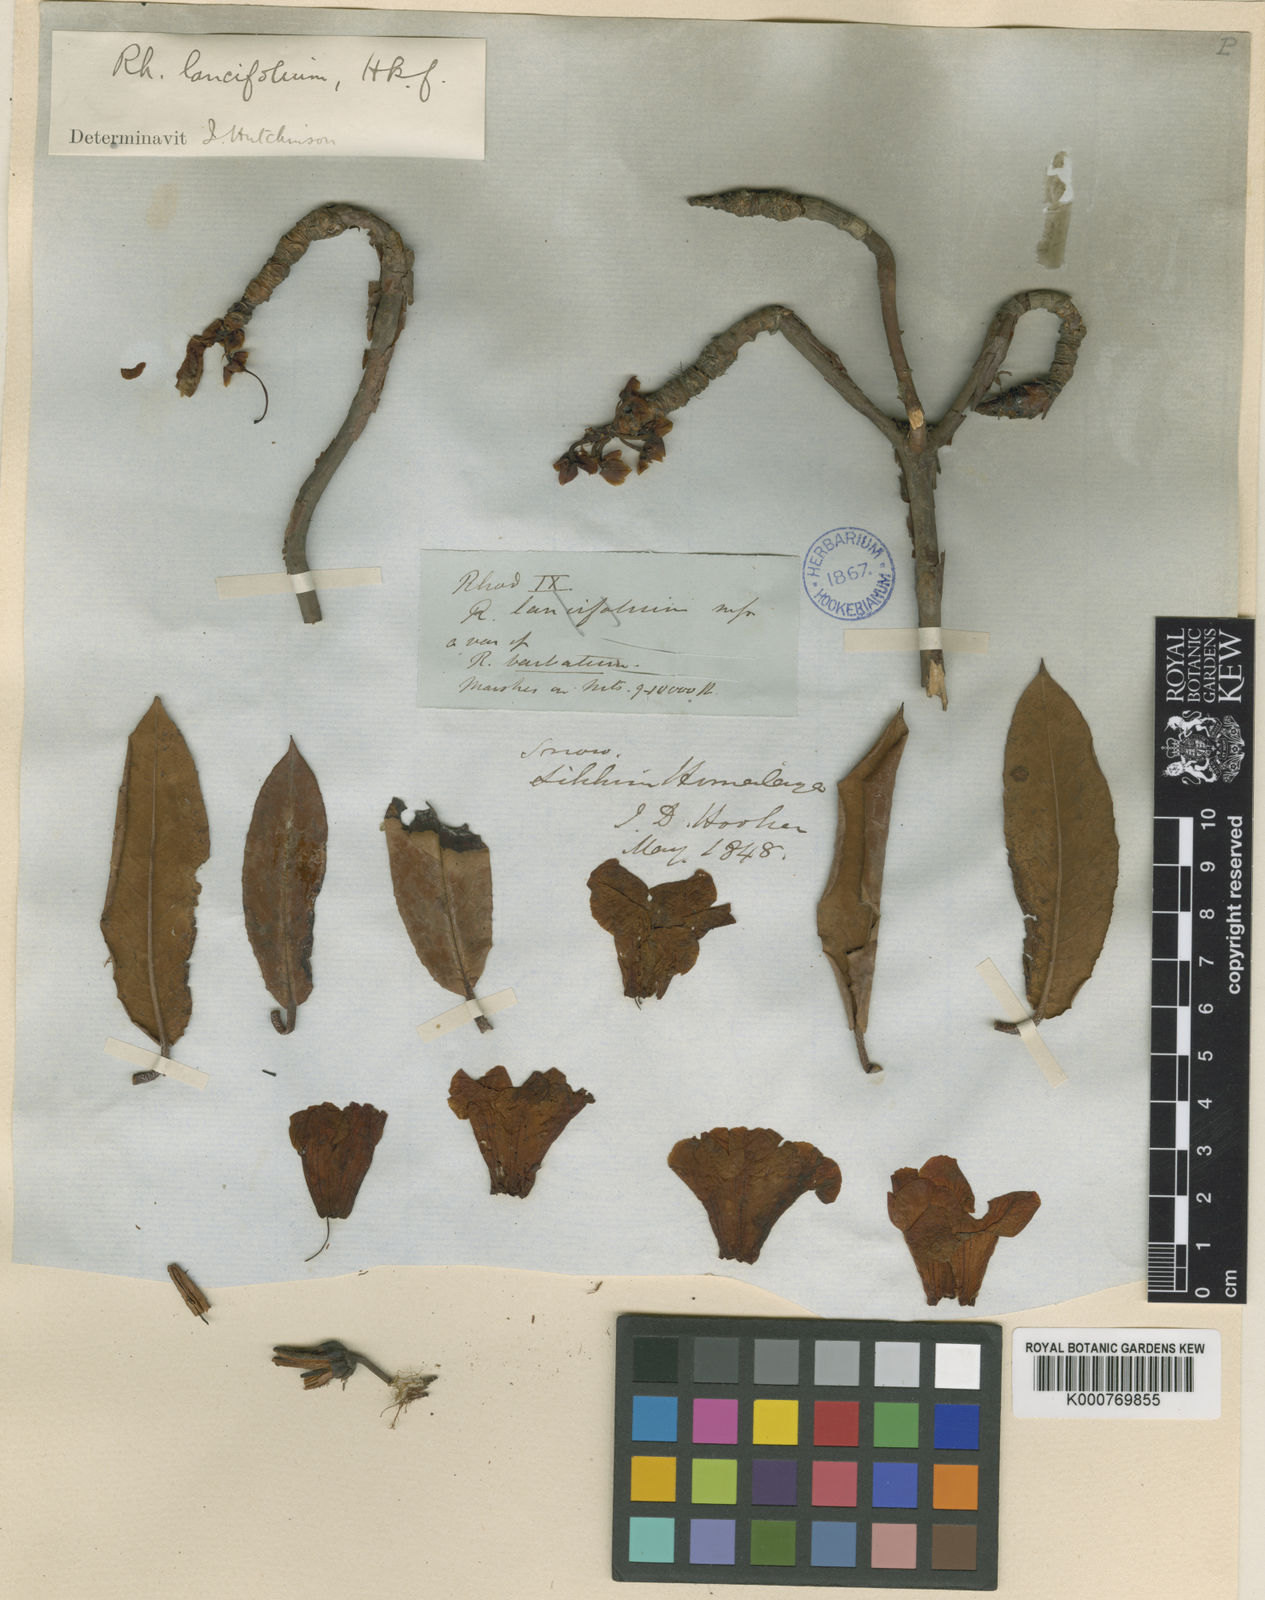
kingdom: Plantae
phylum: Tracheophyta
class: Magnoliopsida
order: Ericales
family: Ericaceae
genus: Rhododendron
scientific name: Rhododendron
